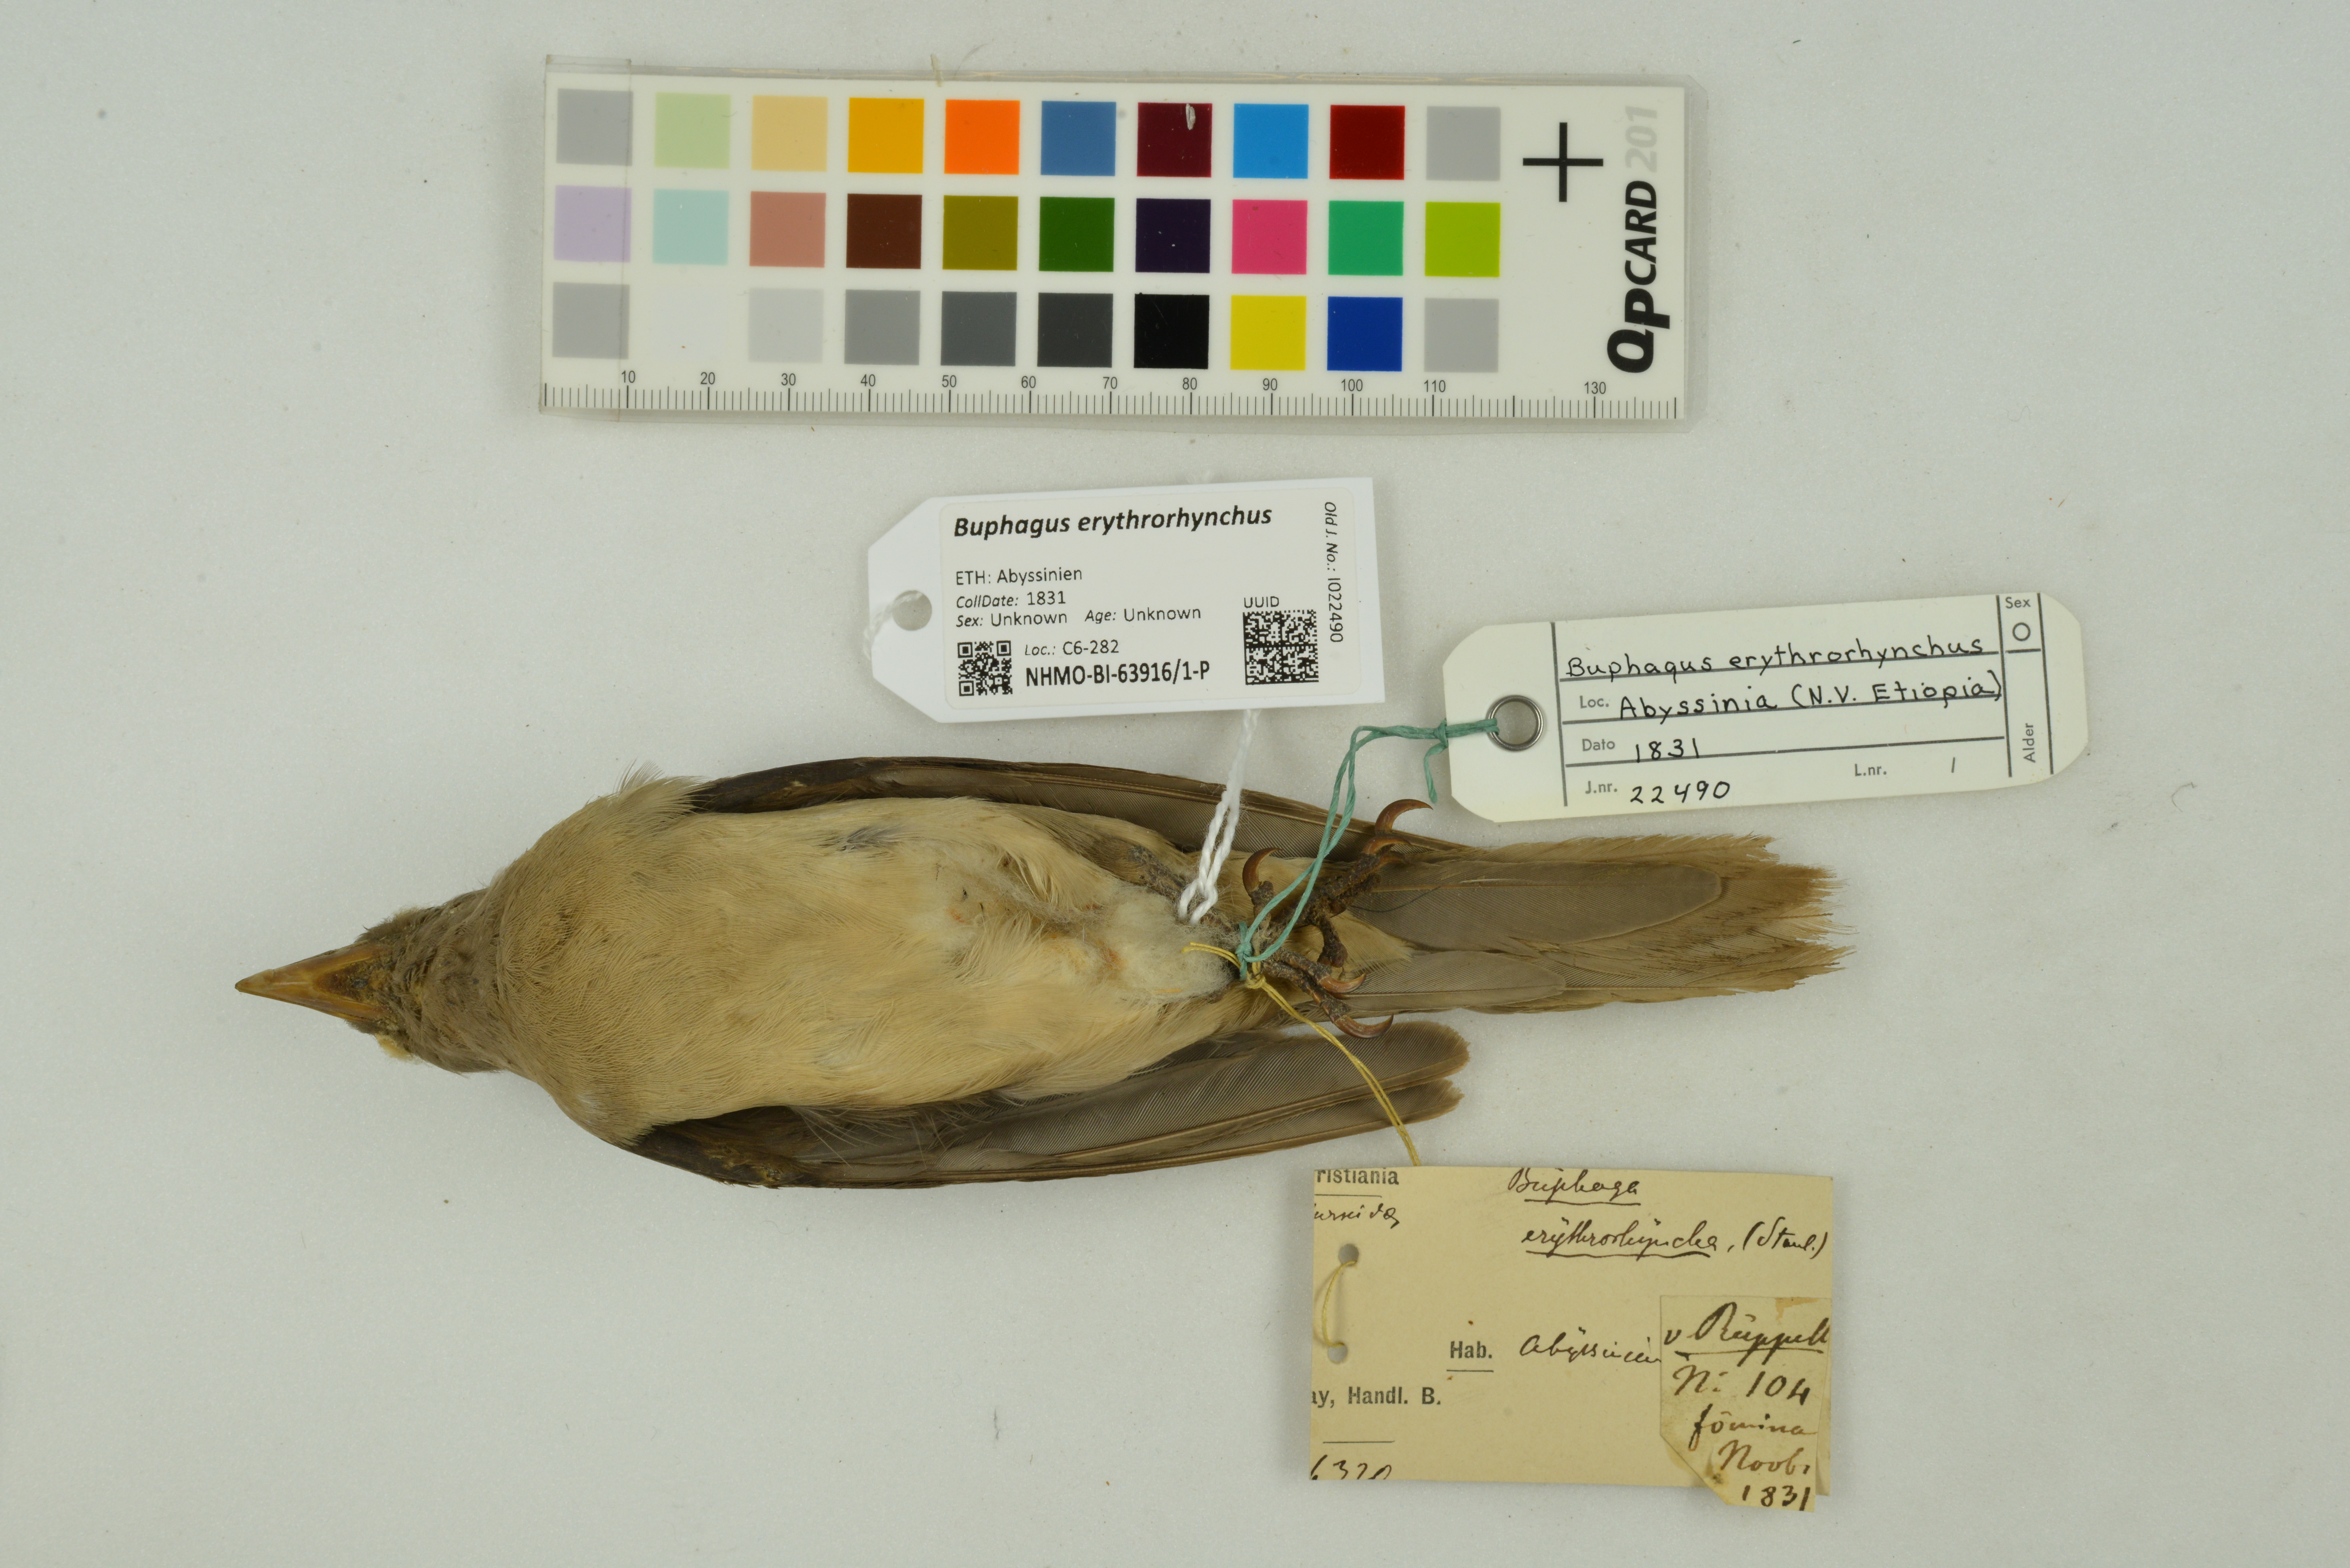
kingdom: Animalia
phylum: Chordata
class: Aves
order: Passeriformes
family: Buphagidae
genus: Buphagus
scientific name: Buphagus erythrorhynchus
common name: Red-billed oxpecker
